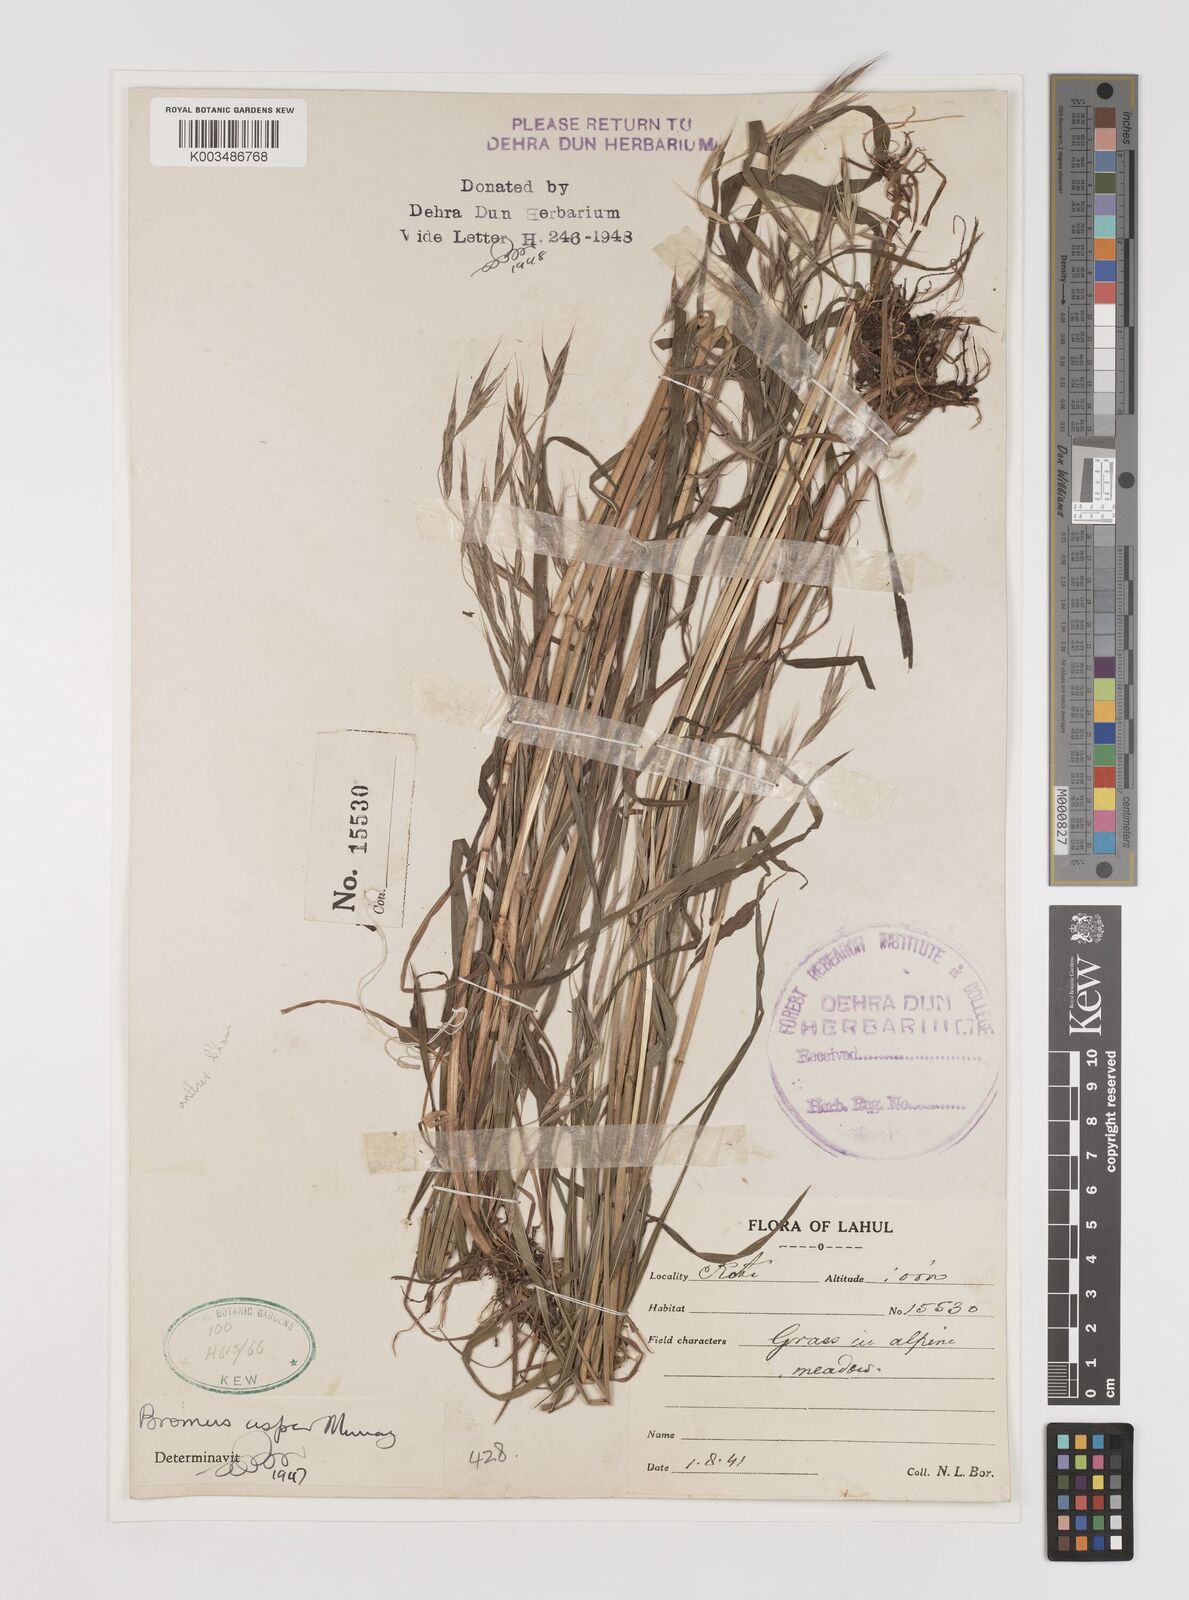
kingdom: Plantae
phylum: Tracheophyta
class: Liliopsida
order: Poales
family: Poaceae
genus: Brachypodium
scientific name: Brachypodium retusum
